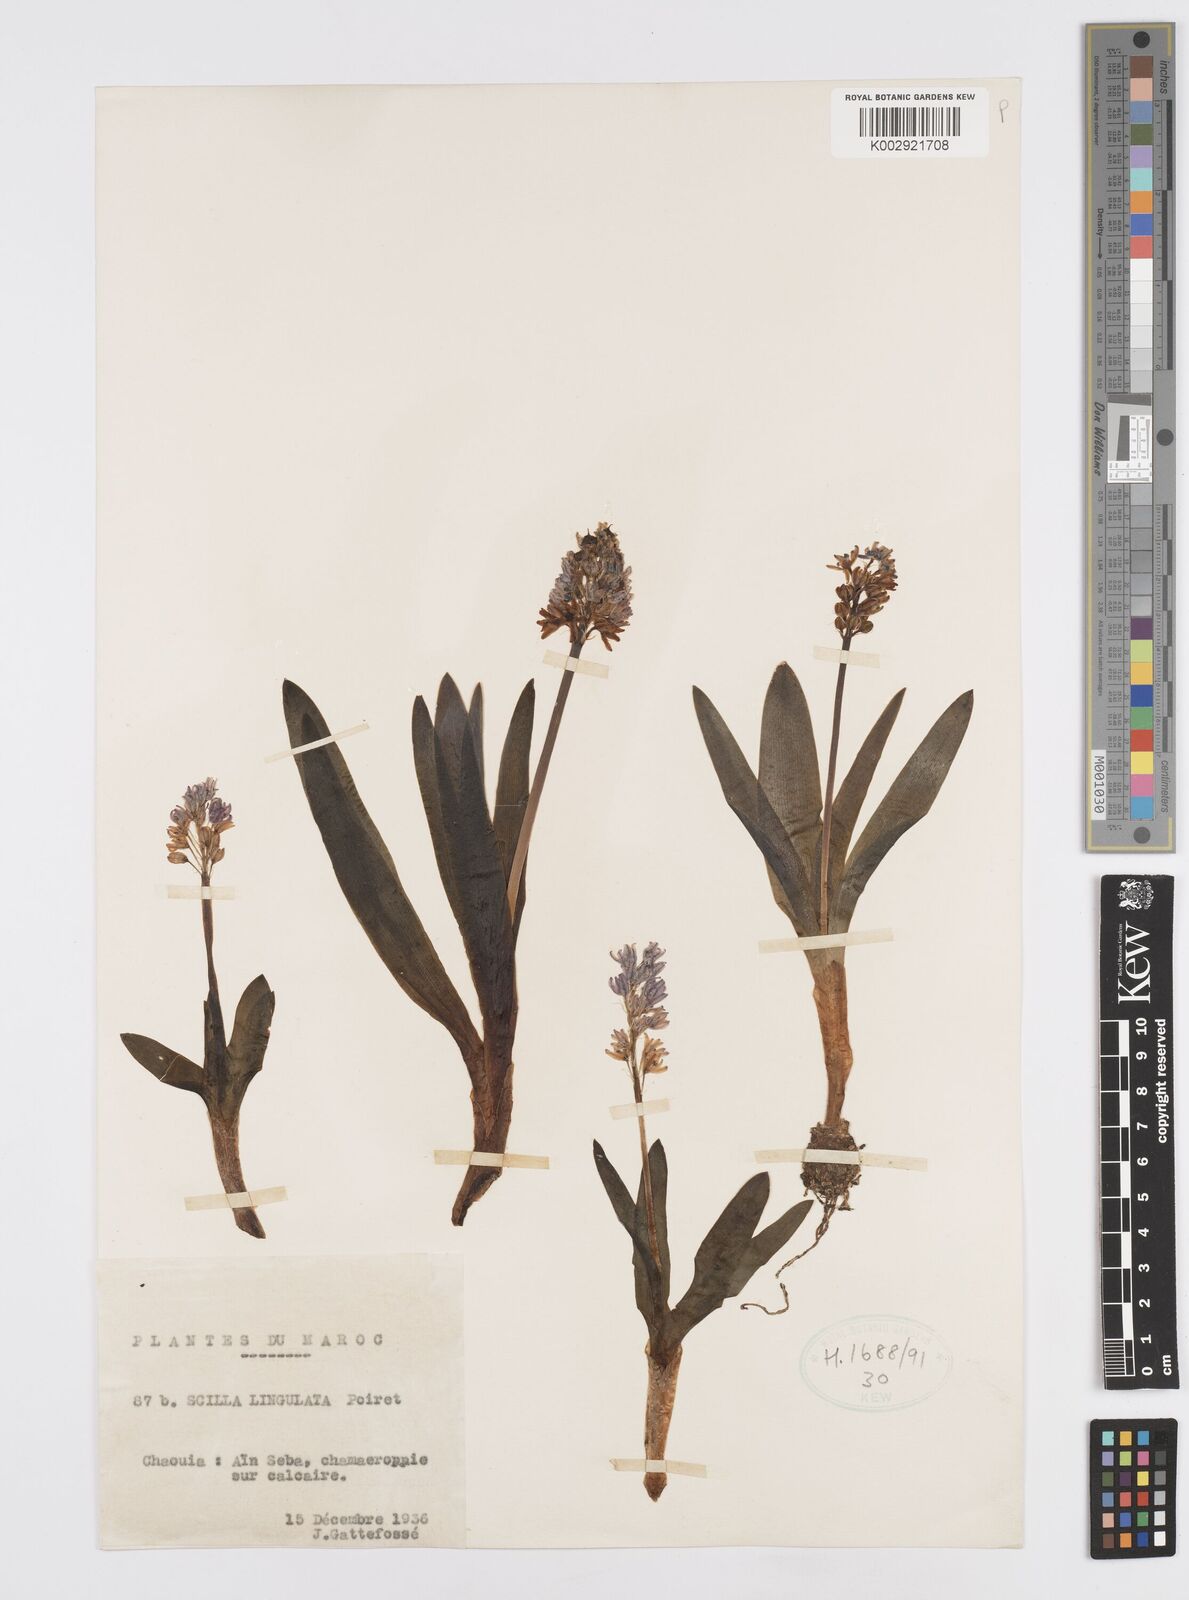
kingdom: Plantae
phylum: Tracheophyta
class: Liliopsida
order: Asparagales
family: Asparagaceae
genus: Hyacinthoides
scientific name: Hyacinthoides lingulata
